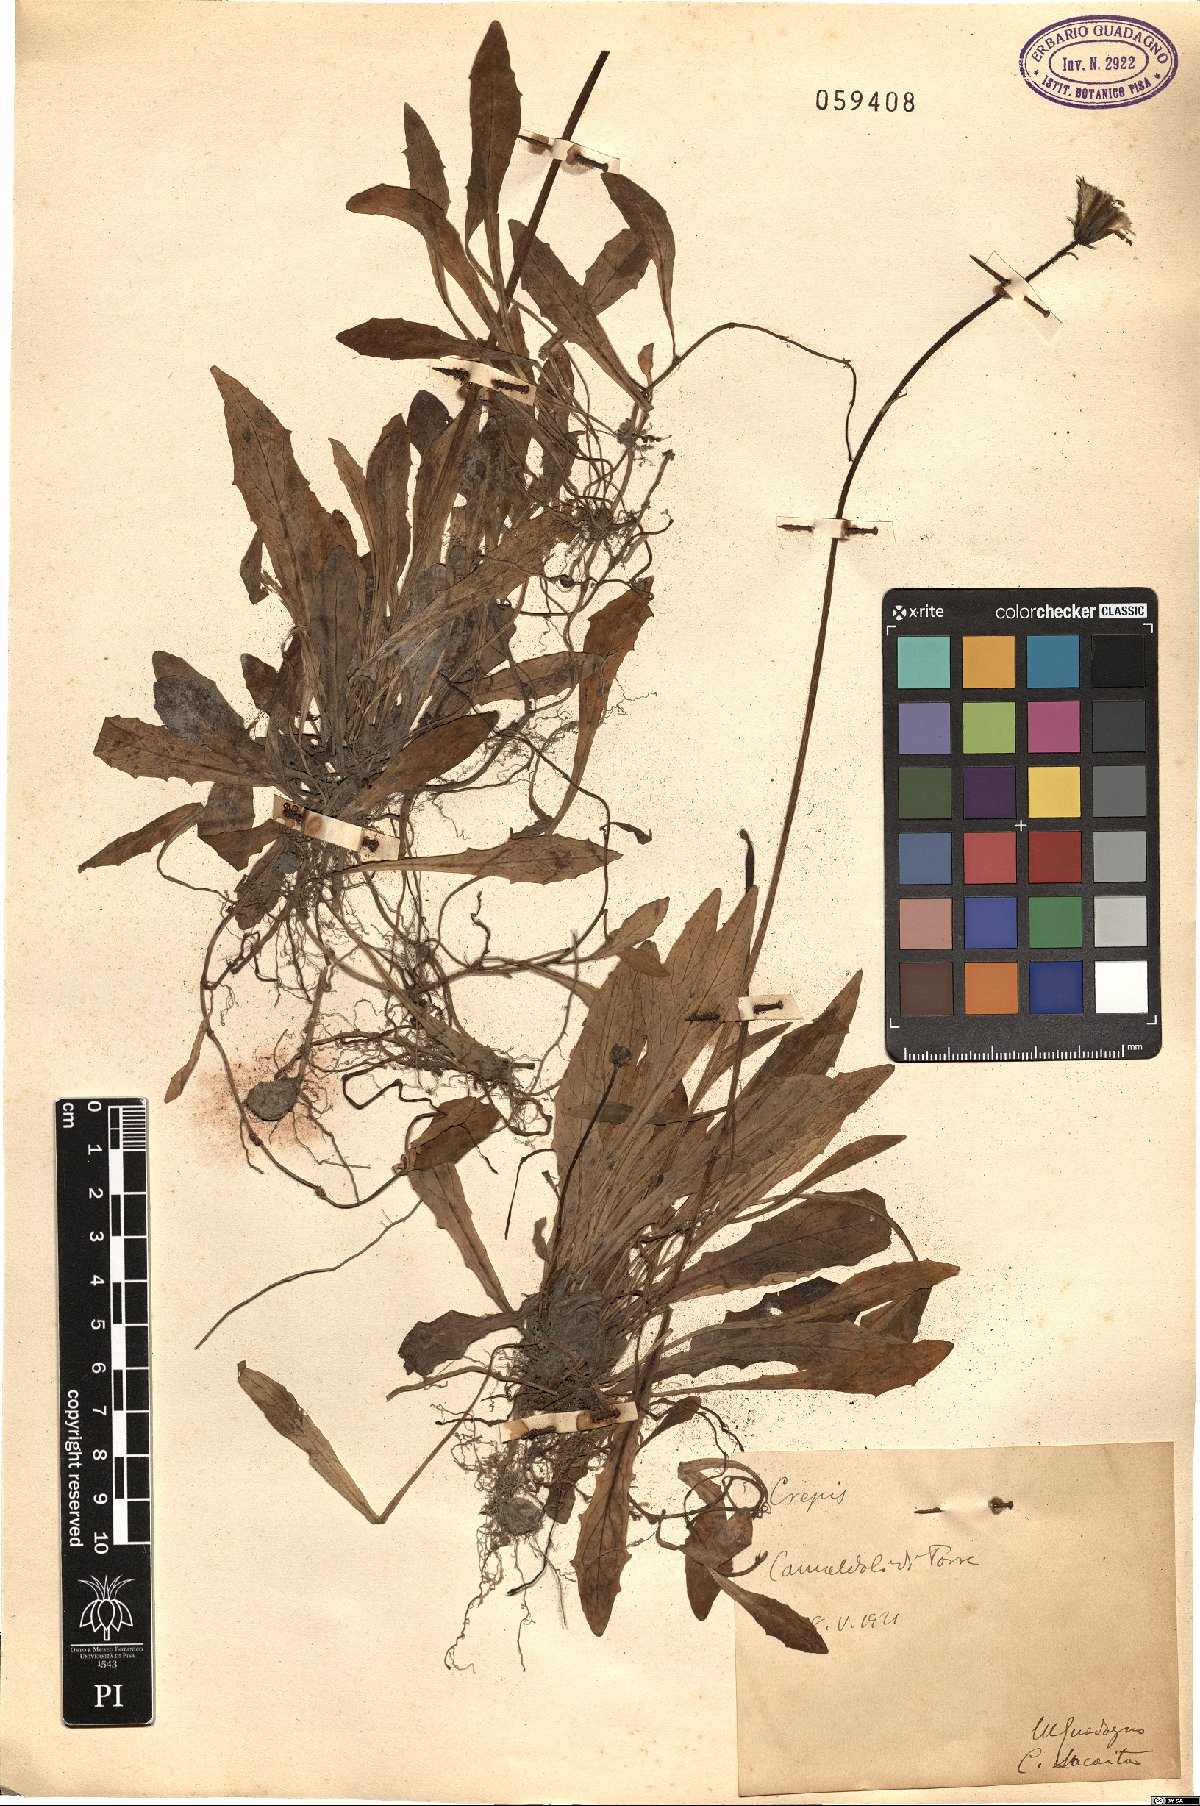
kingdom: Plantae
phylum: Tracheophyta
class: Magnoliopsida
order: Asterales
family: Asteraceae
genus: Crepis
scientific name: Crepis
